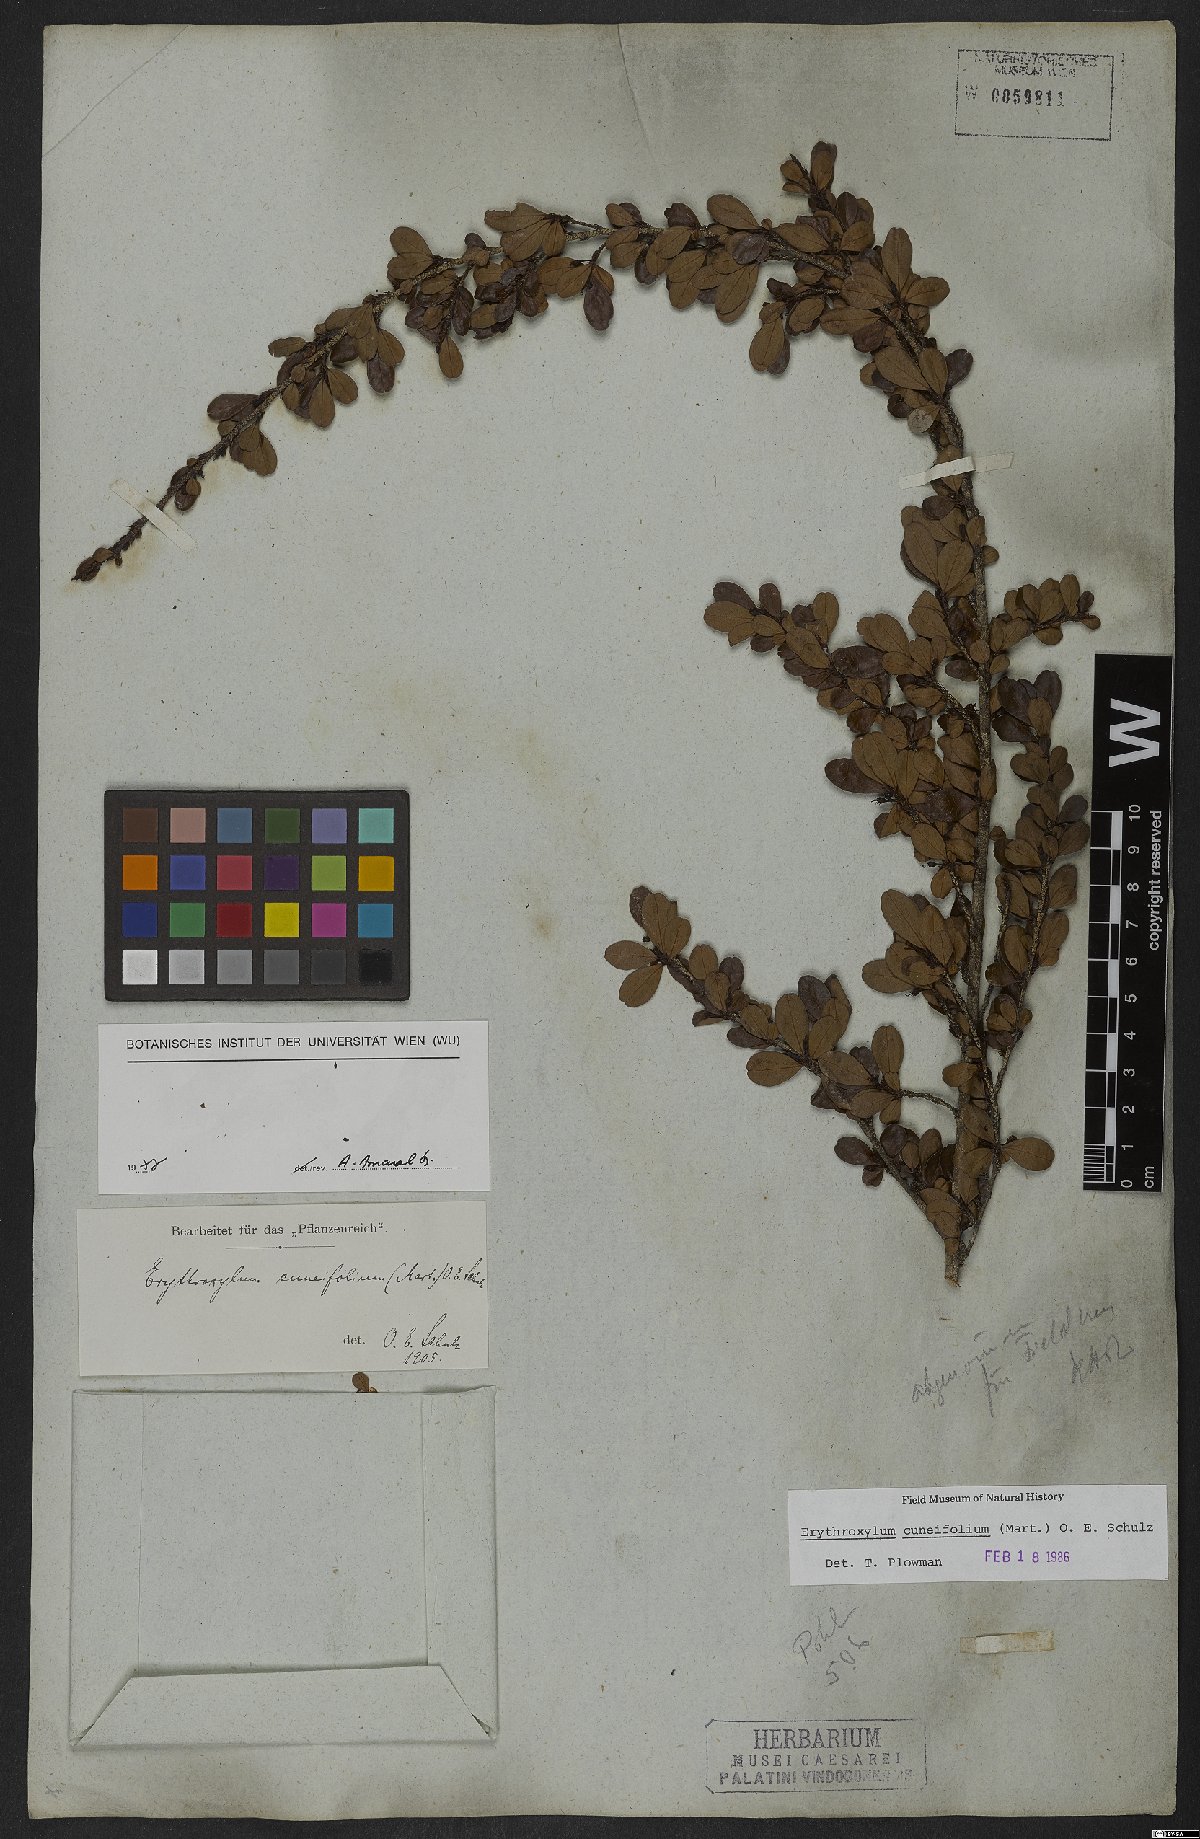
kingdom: Plantae
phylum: Tracheophyta
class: Magnoliopsida
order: Malpighiales
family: Erythroxylaceae
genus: Erythroxylum
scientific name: Erythroxylum cuneifolium
